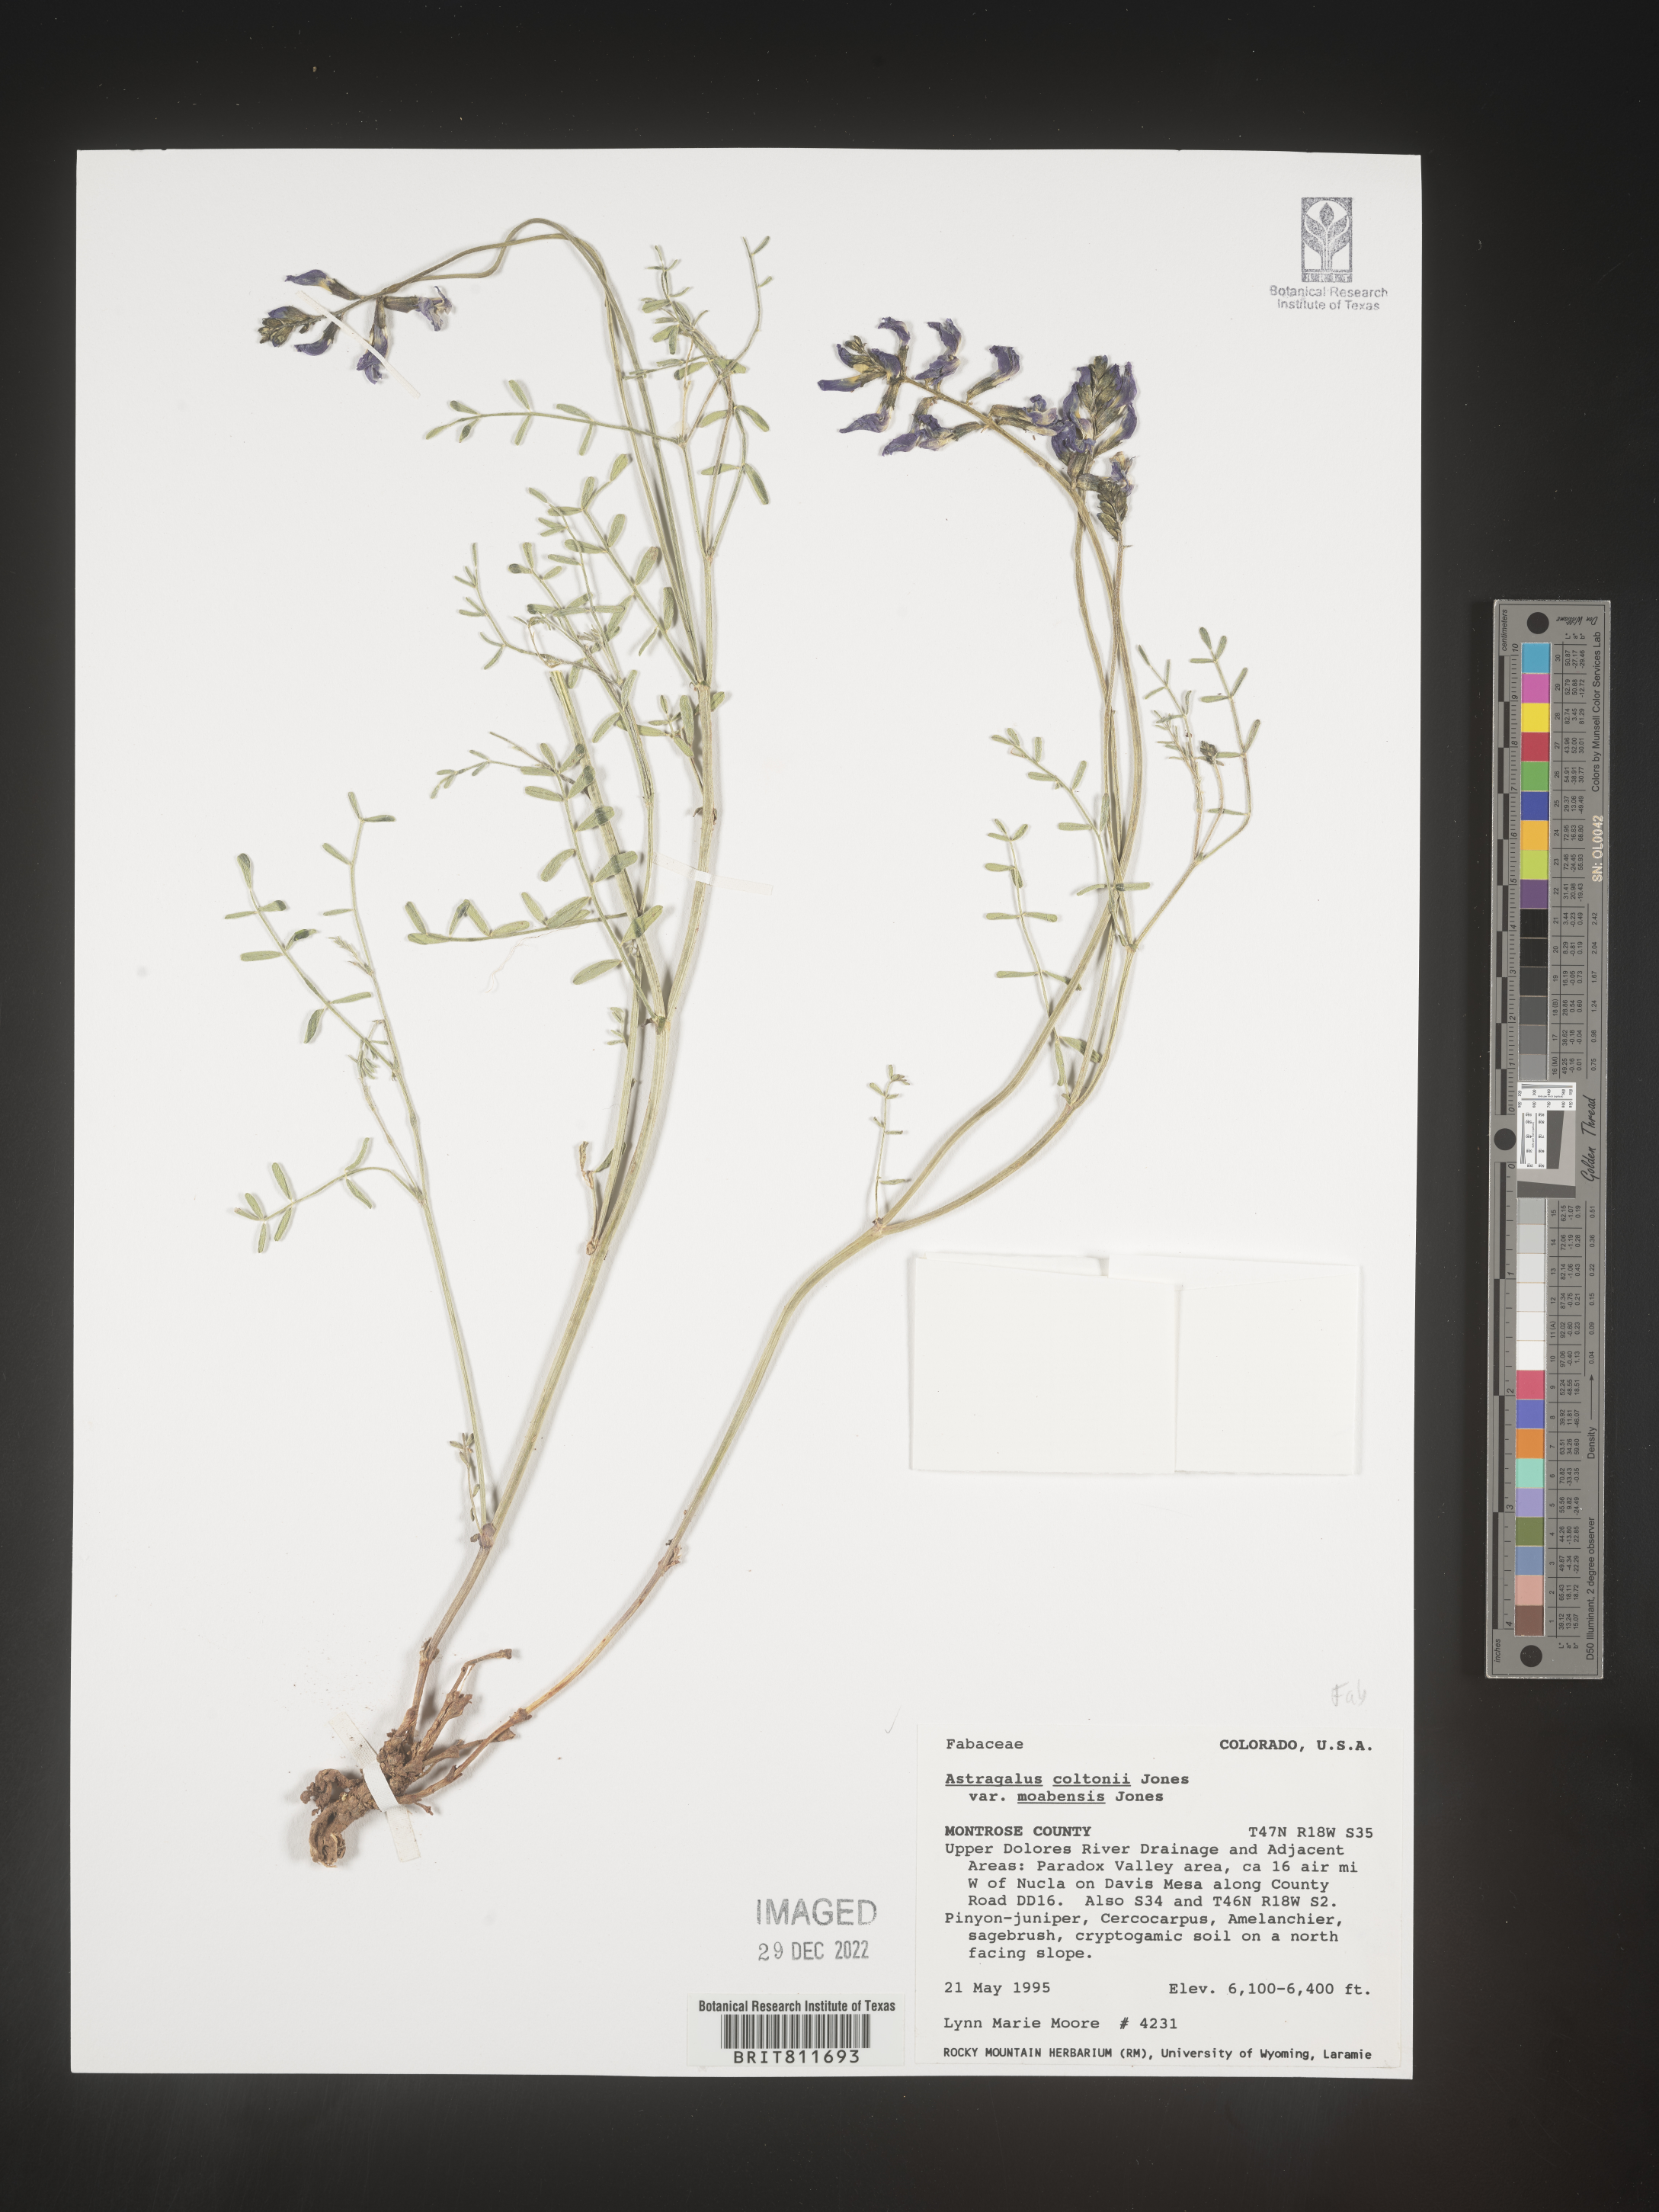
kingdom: Plantae
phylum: Tracheophyta
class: Magnoliopsida
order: Fabales
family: Fabaceae
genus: Astragalus
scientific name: Astragalus cottonii
